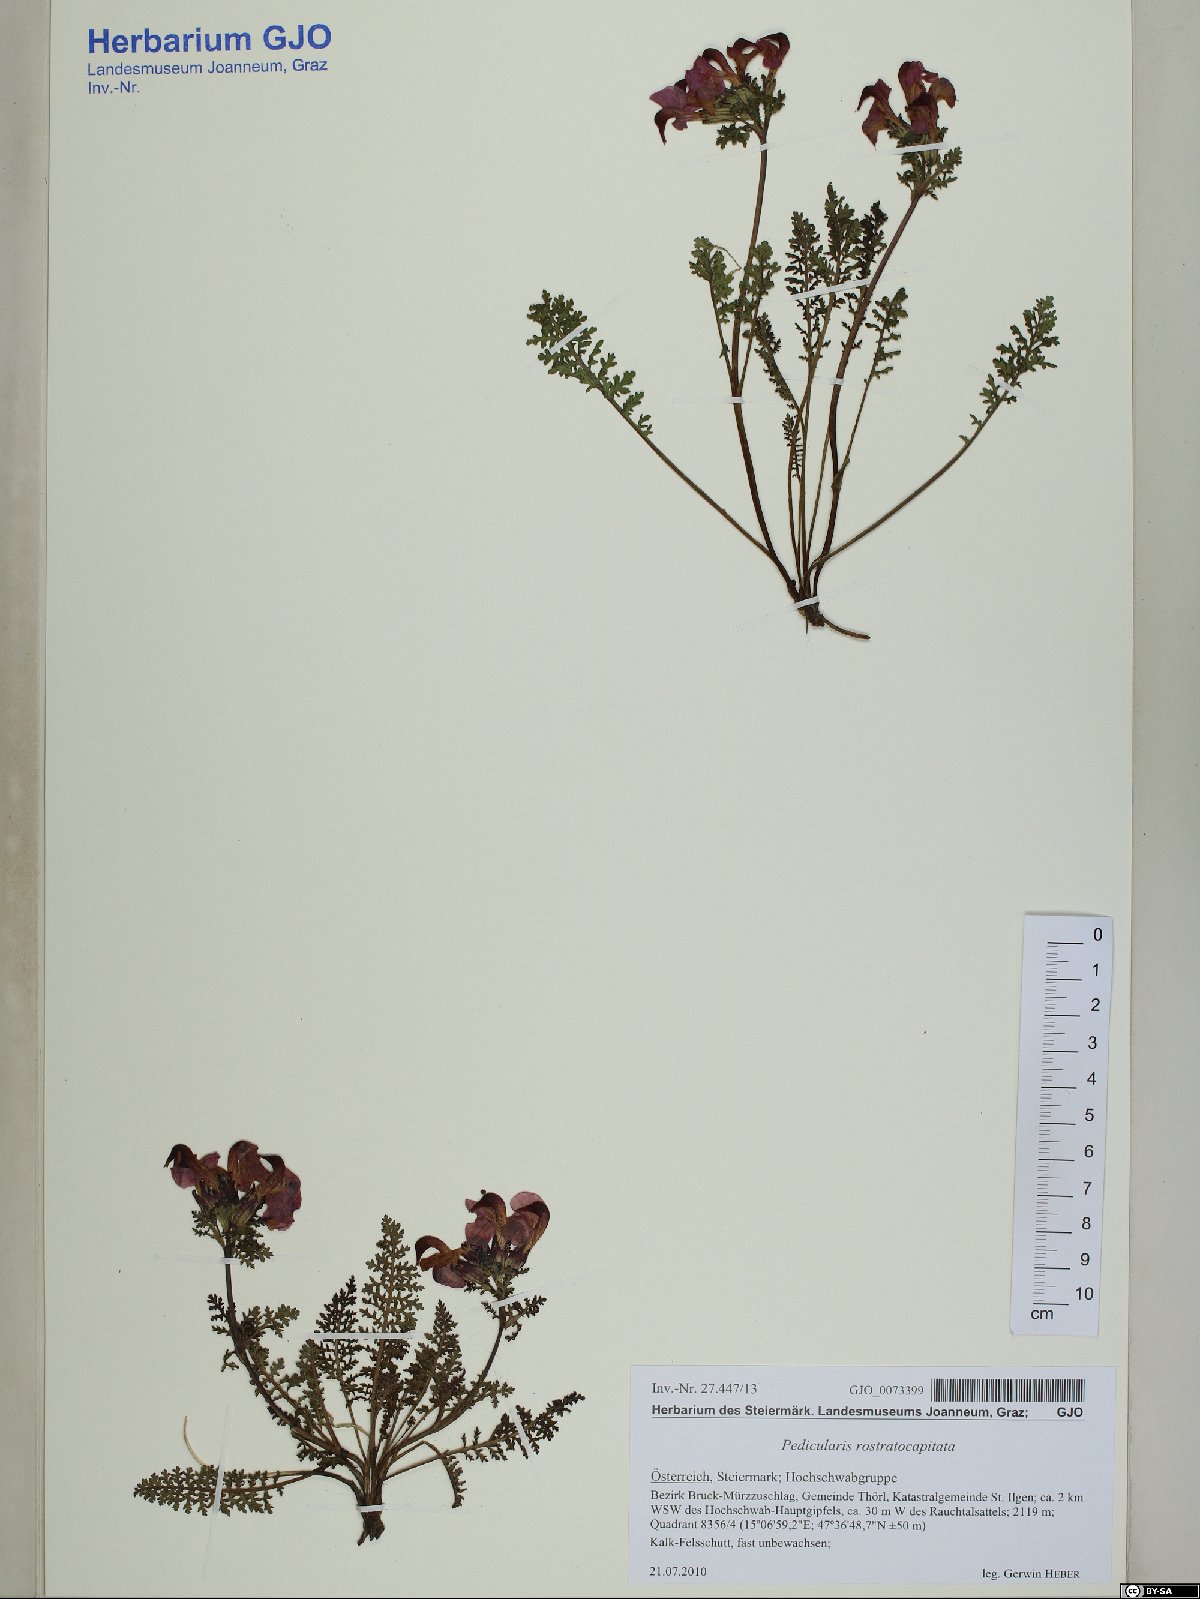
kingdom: Plantae
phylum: Tracheophyta
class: Magnoliopsida
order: Lamiales
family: Orobanchaceae
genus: Pedicularis
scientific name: Pedicularis rostratocapitata
